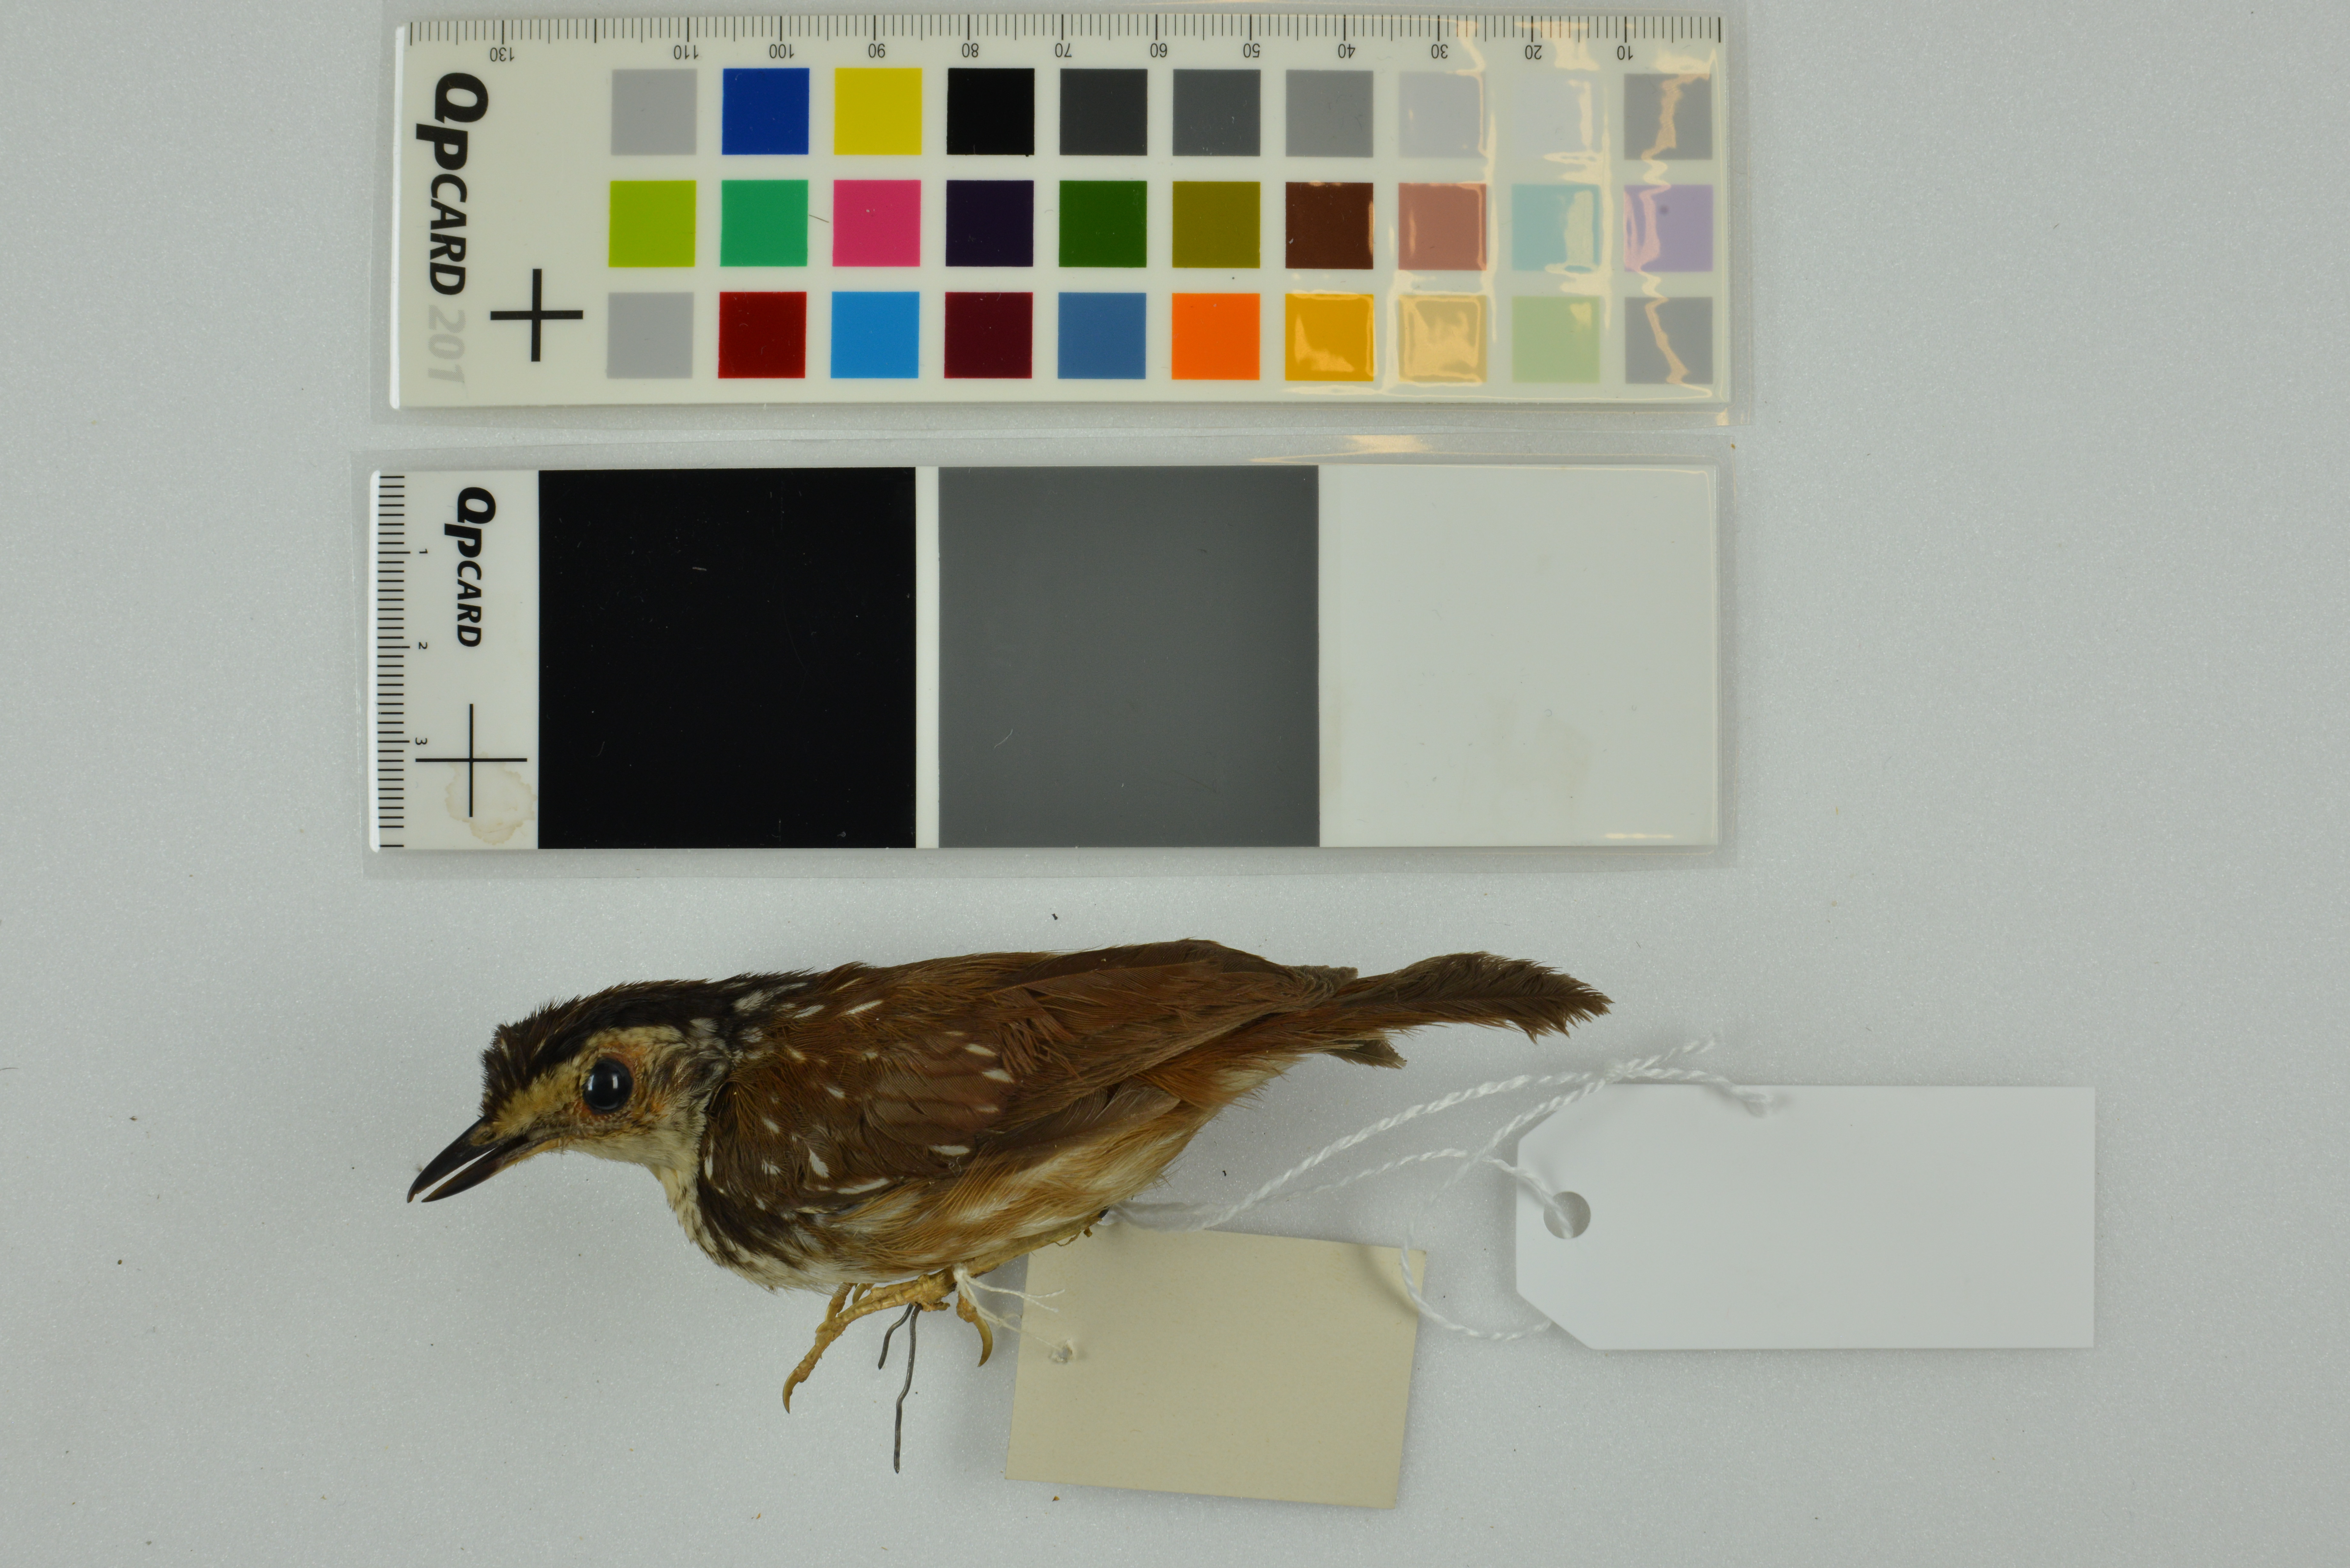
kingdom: Animalia
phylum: Chordata
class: Aves
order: Passeriformes
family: Pellorneidae
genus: Kenopia
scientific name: Kenopia striata
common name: Striped wren-babbler
